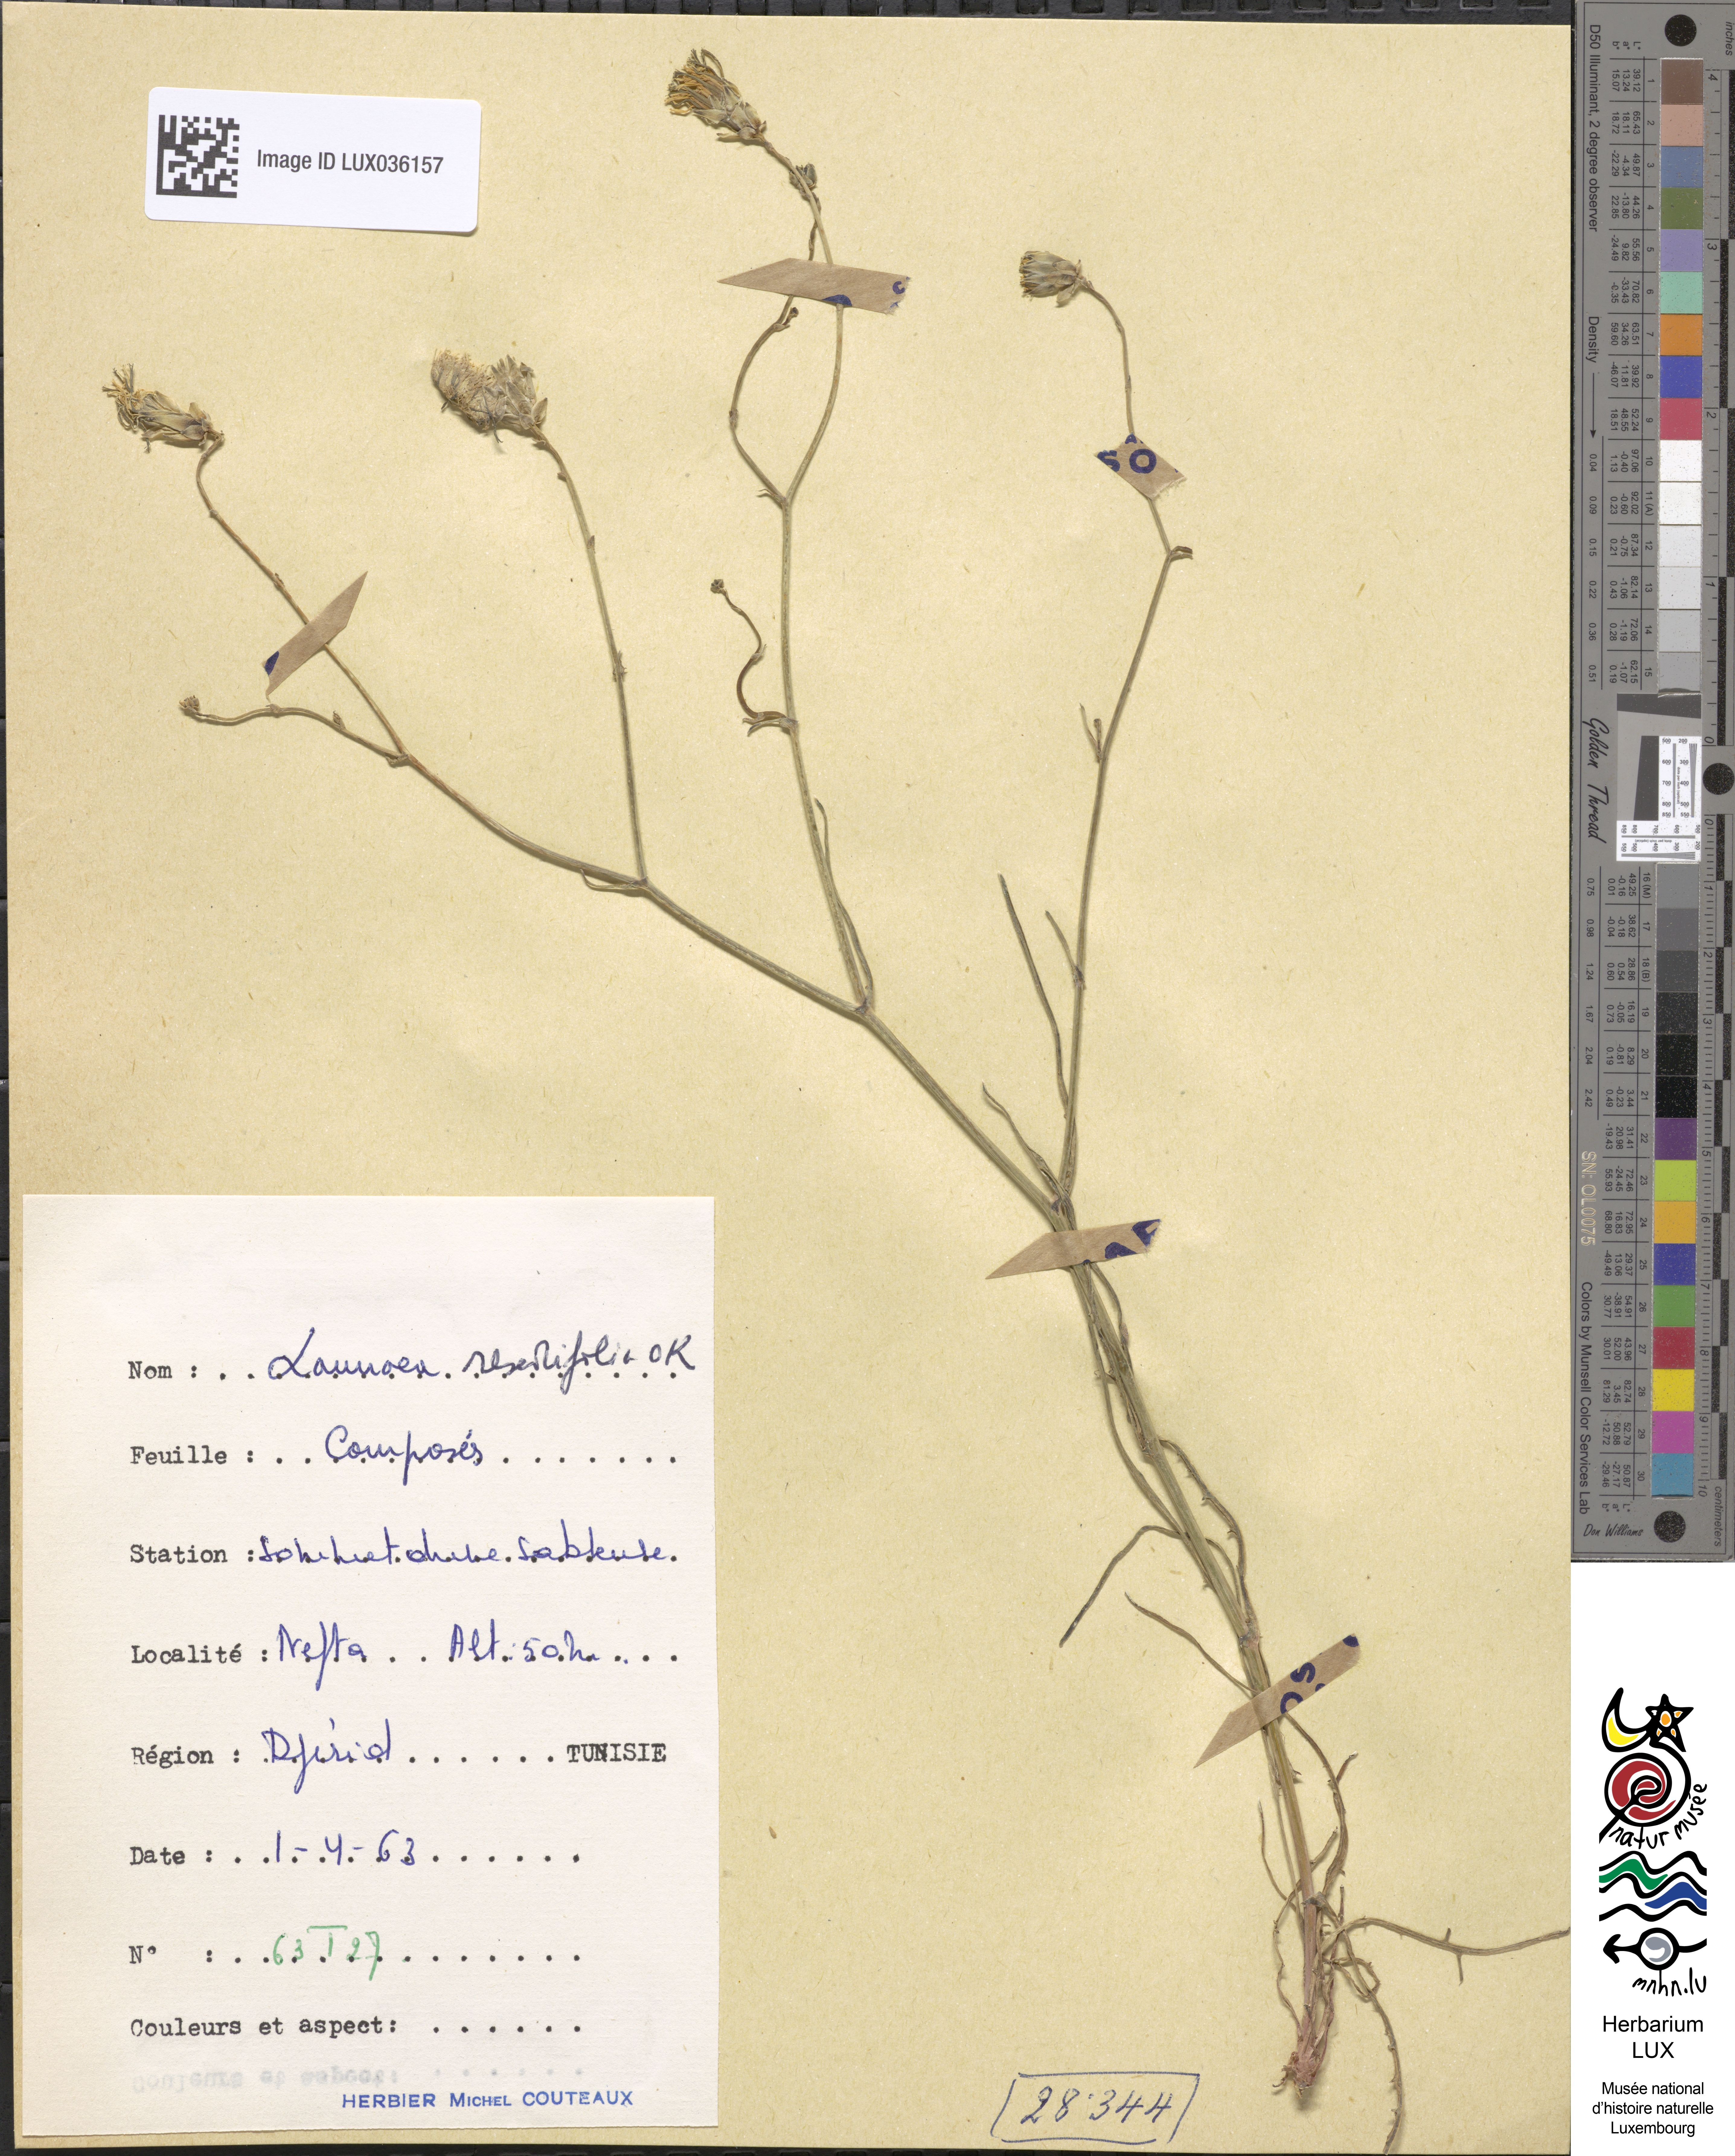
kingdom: Plantae
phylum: Tracheophyta
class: Magnoliopsida
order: Asterales
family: Asteraceae
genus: Launaea
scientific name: Launaea fragilis
